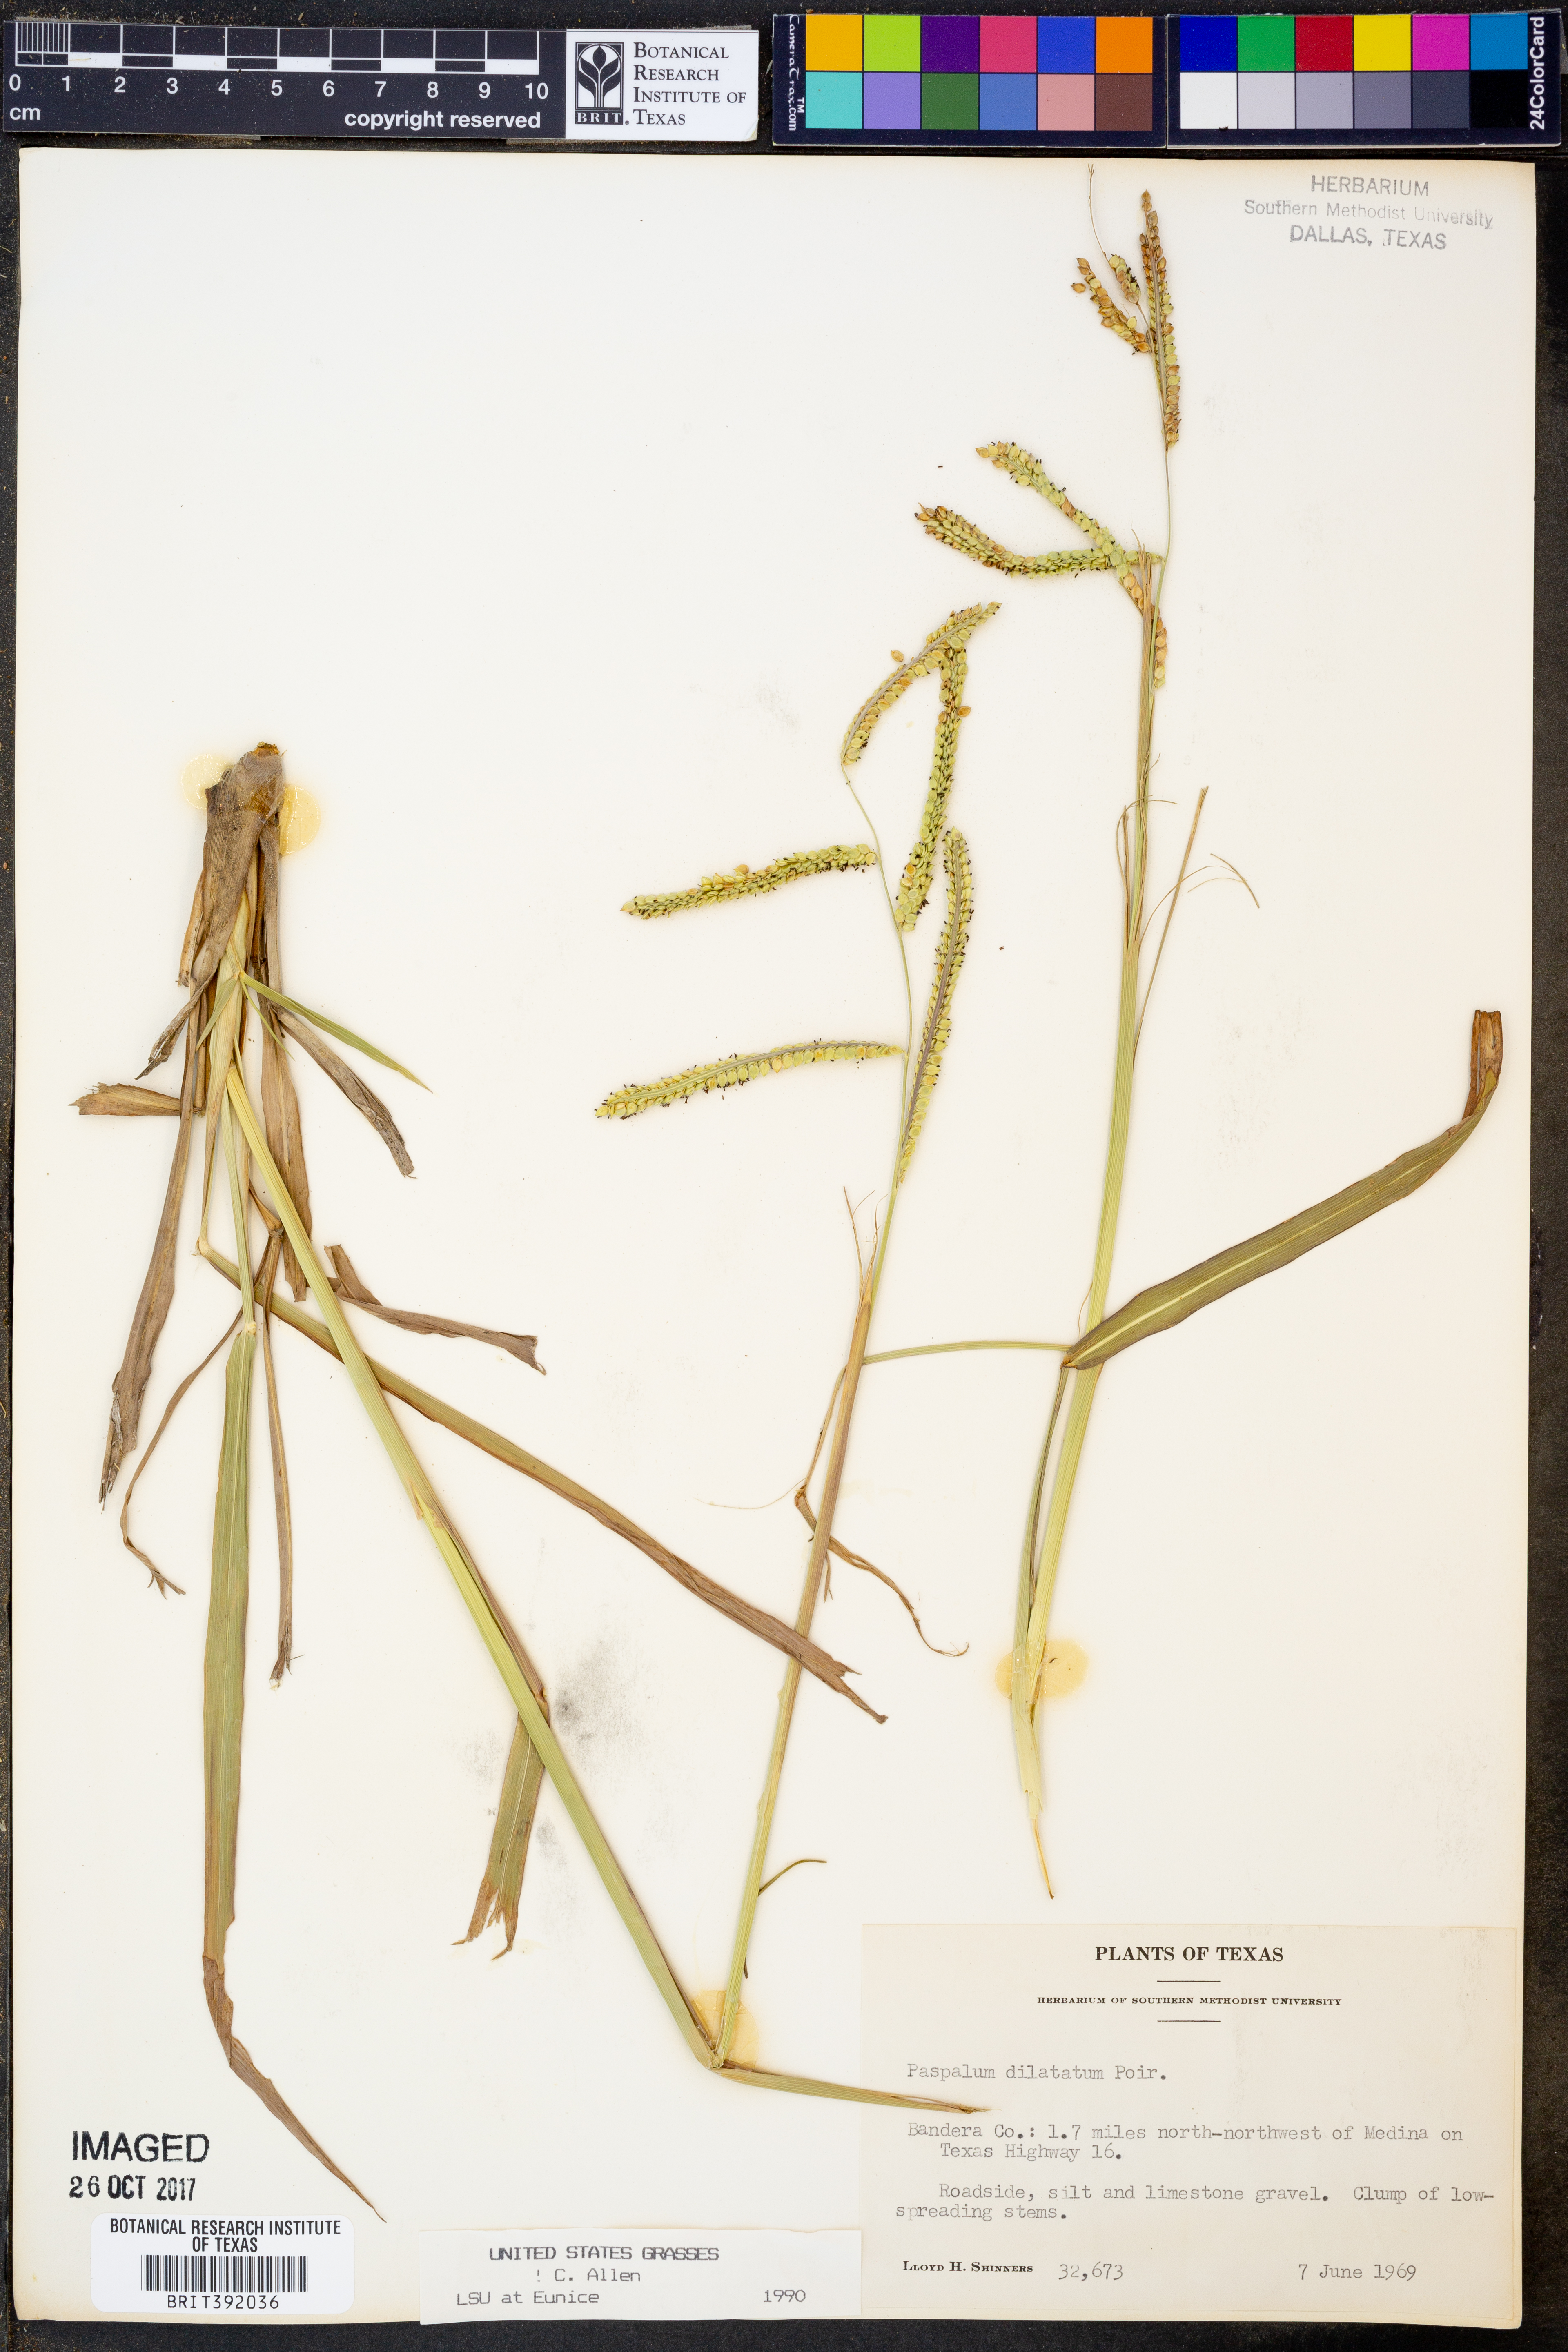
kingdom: Plantae
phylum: Tracheophyta
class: Liliopsida
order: Poales
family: Poaceae
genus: Paspalum
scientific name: Paspalum dilatatum
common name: Dallisgrass
